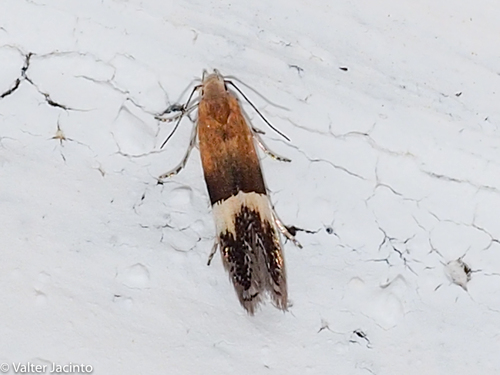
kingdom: Animalia
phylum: Arthropoda
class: Insecta
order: Lepidoptera
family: Gelechiidae
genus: Aproaerema
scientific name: Aproaerema polychromella
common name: African sober
